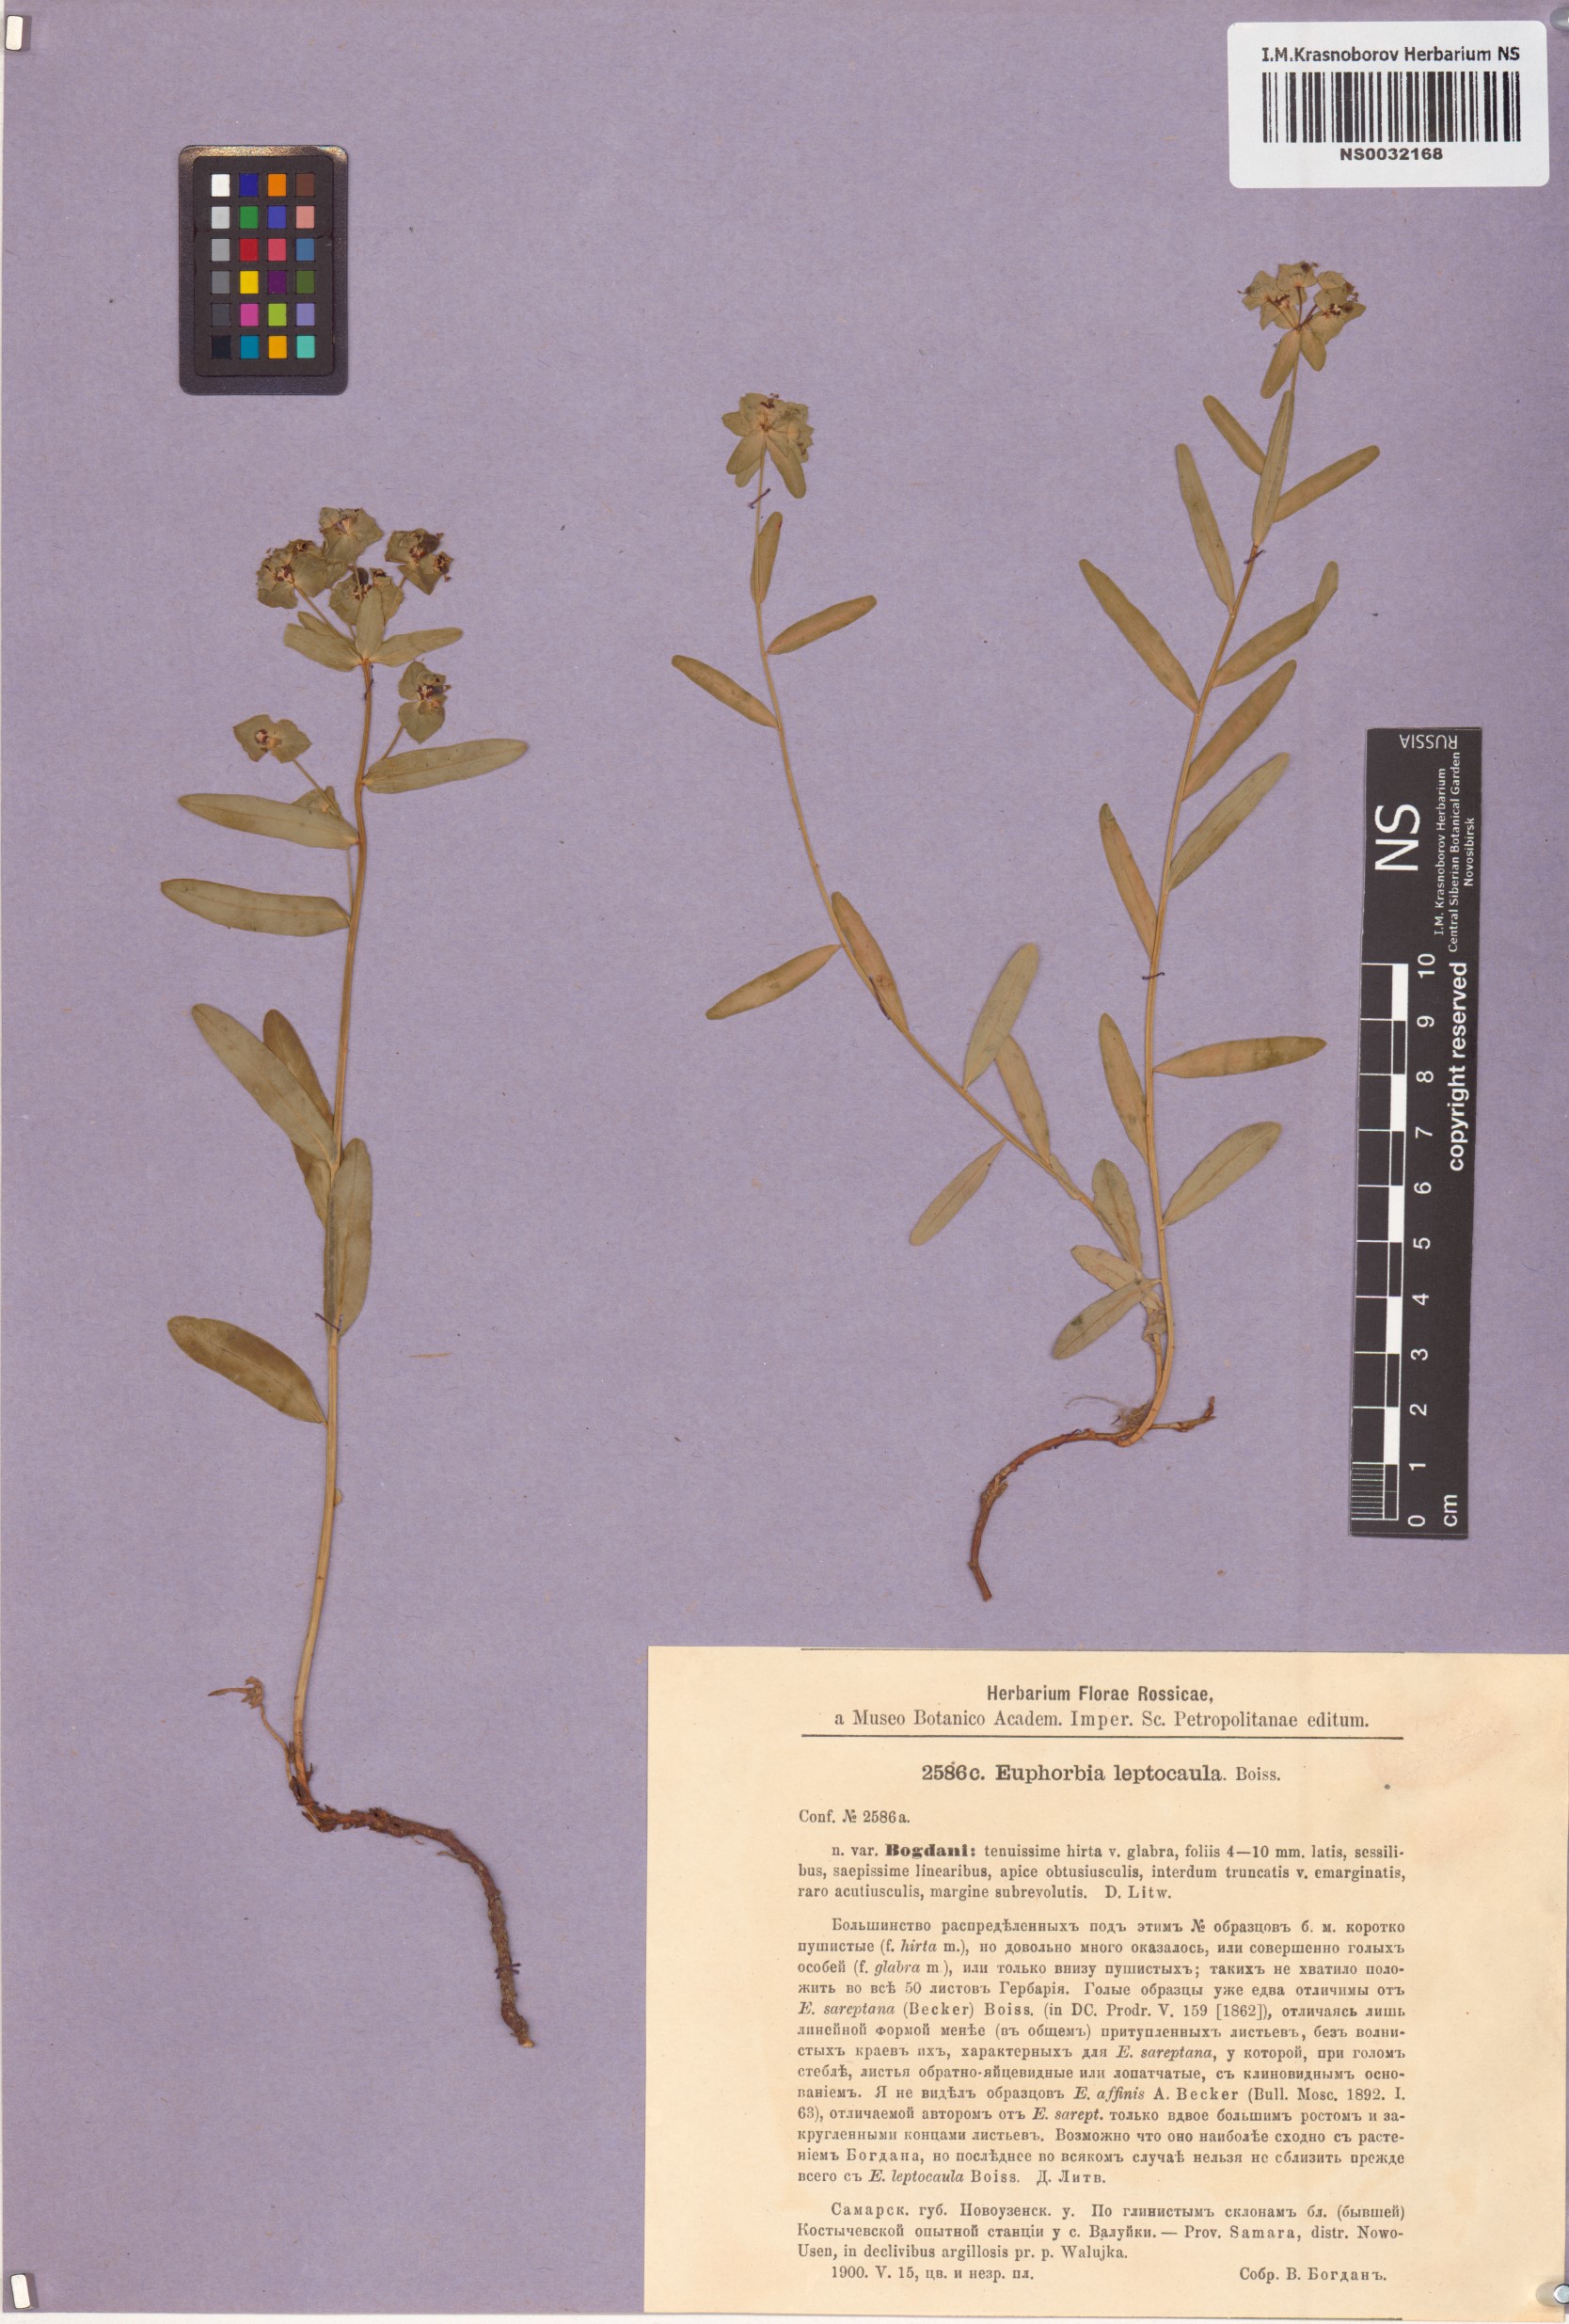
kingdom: Plantae
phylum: Tracheophyta
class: Magnoliopsida
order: Malpighiales
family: Euphorbiaceae
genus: Euphorbia
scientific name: Euphorbia leptocaula
